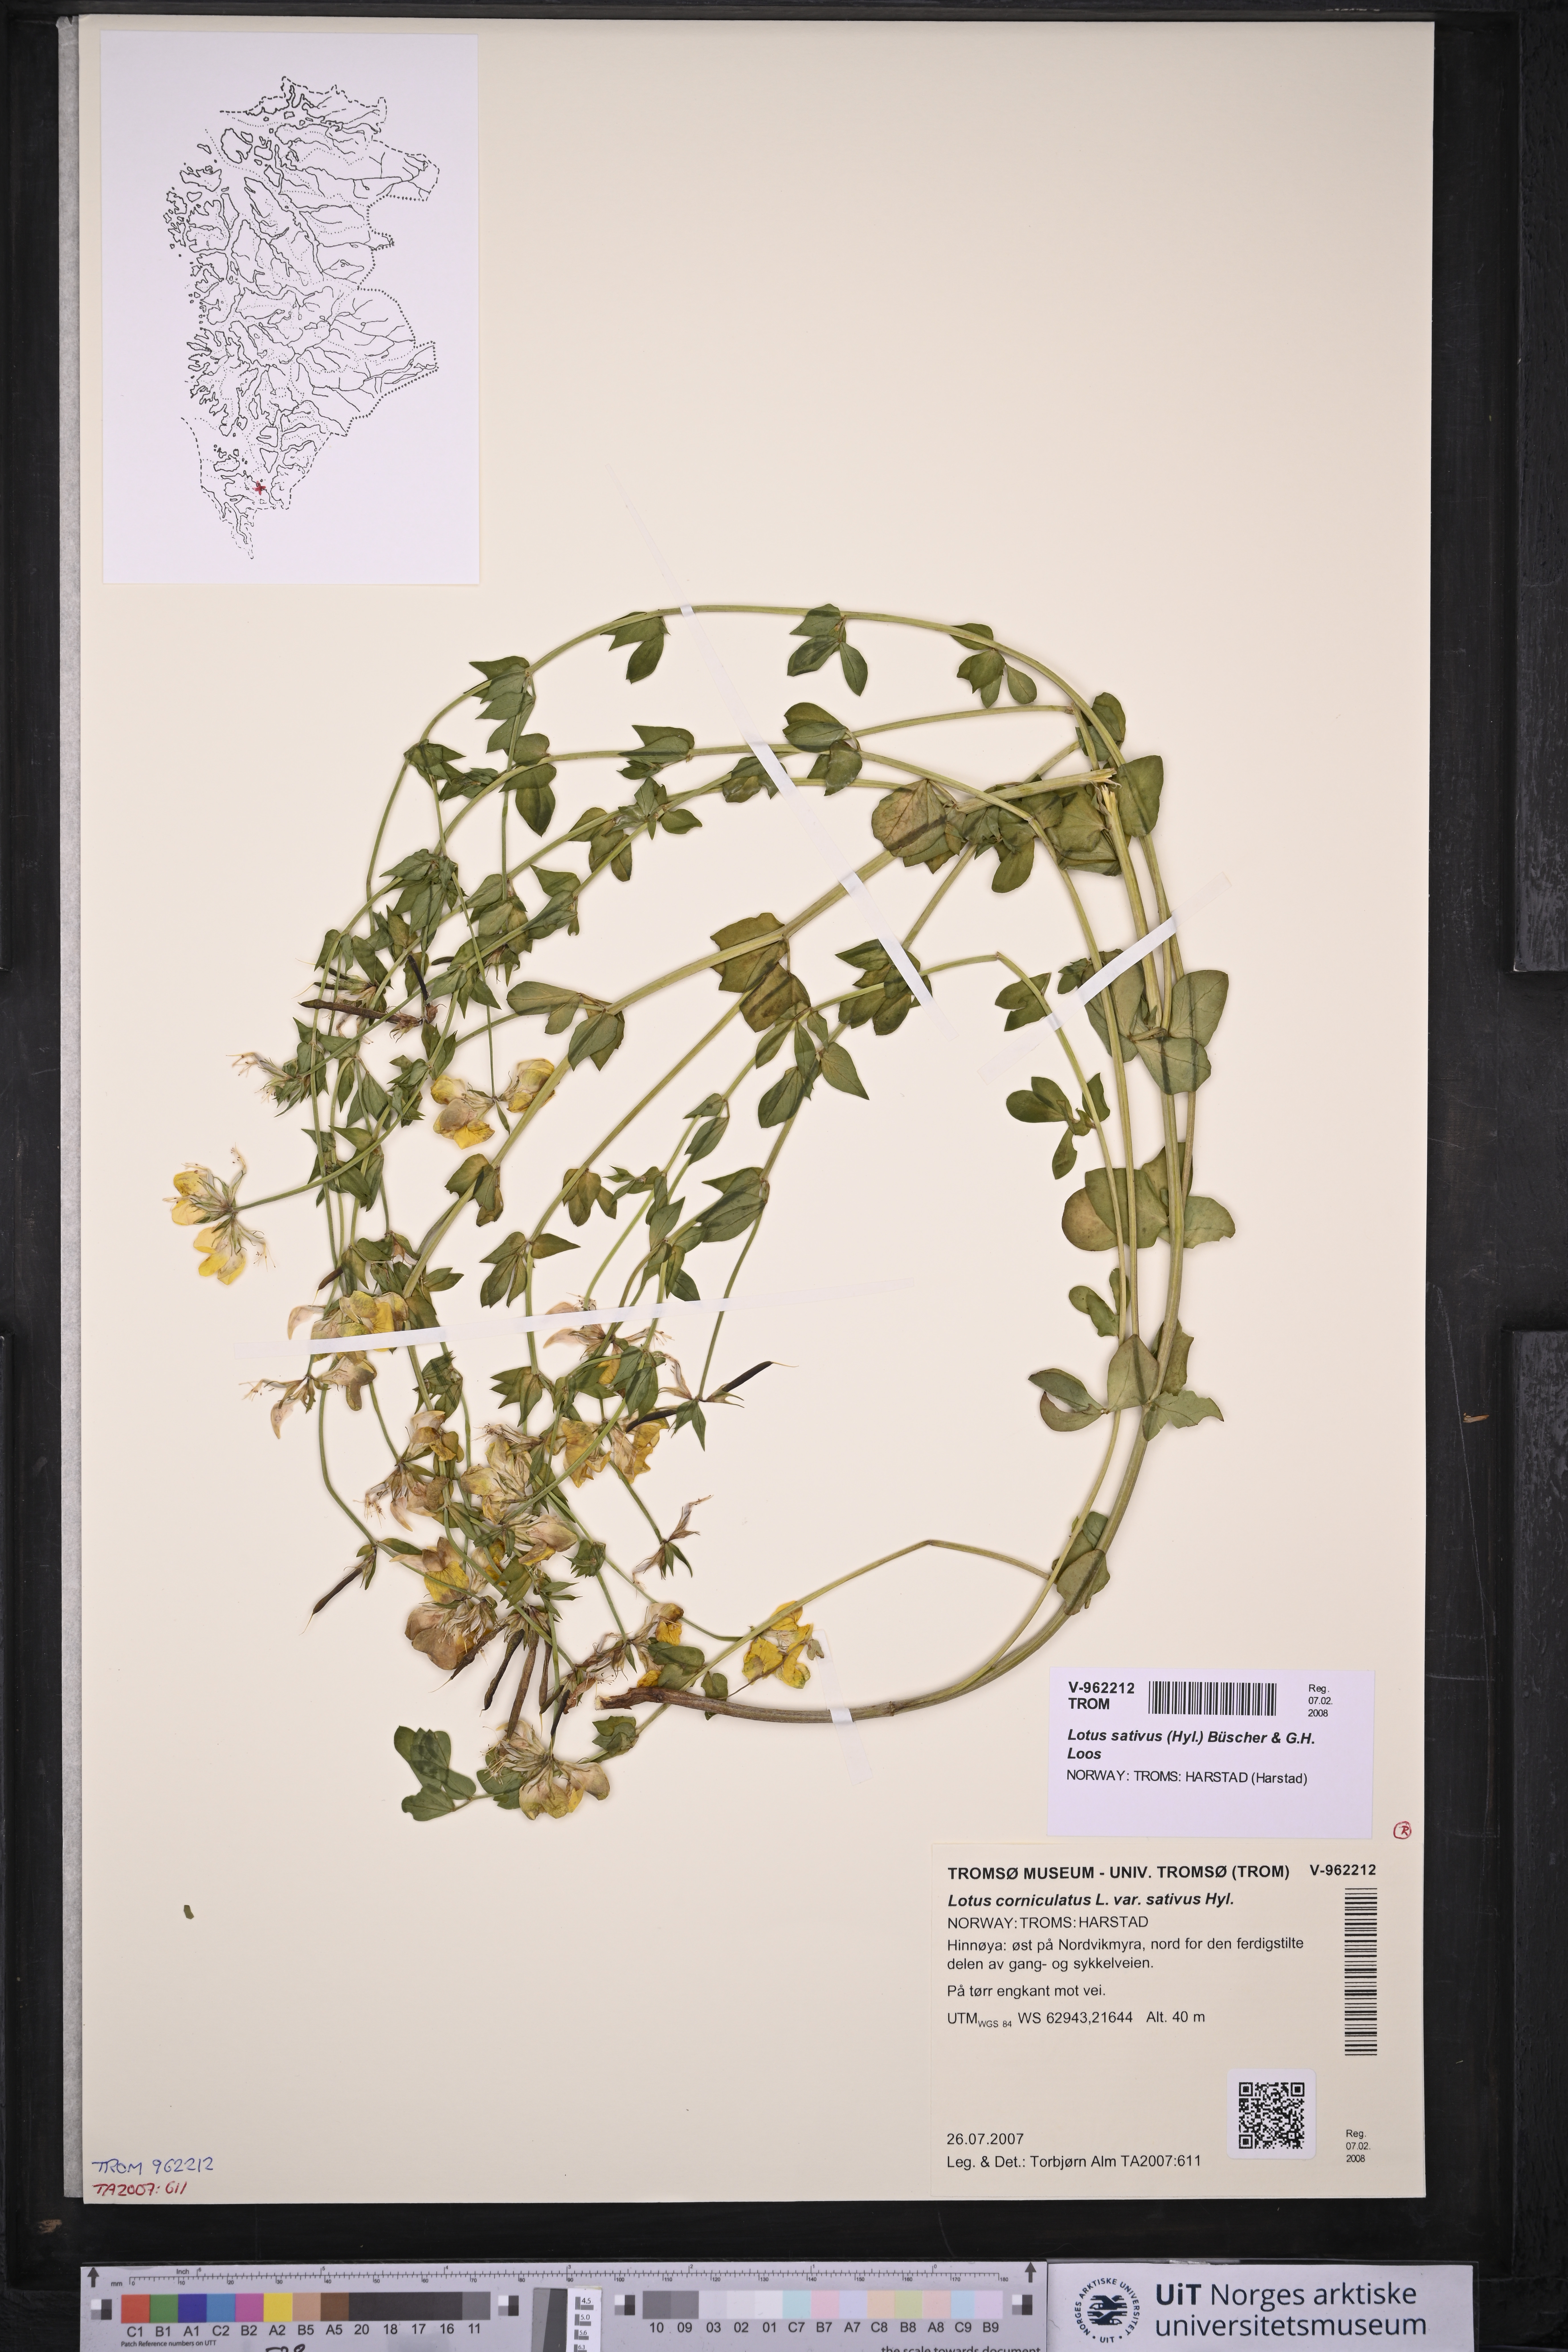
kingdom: Plantae
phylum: Tracheophyta
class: Magnoliopsida
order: Fabales
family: Fabaceae
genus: Lotus
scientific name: Lotus corniculatus
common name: Common bird's-foot-trefoil
